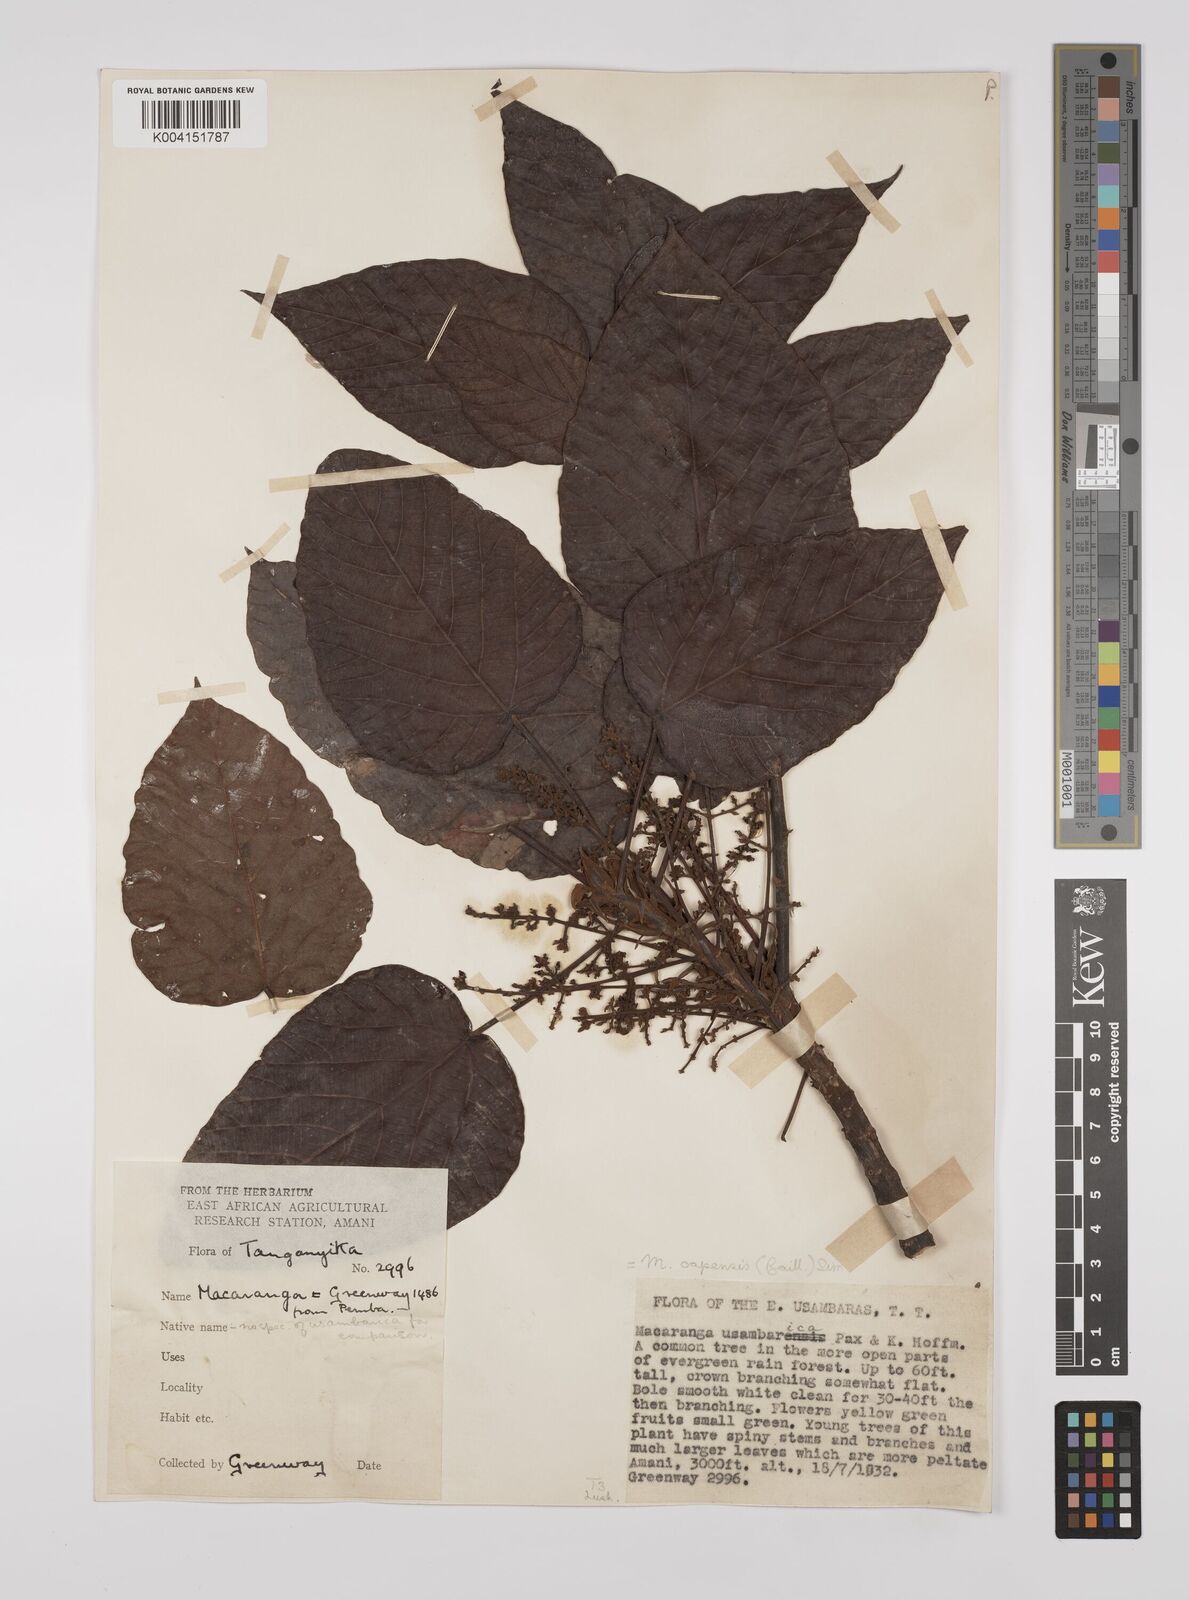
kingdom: Plantae
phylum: Tracheophyta
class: Magnoliopsida
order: Malpighiales
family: Euphorbiaceae
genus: Macaranga
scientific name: Macaranga capensis
